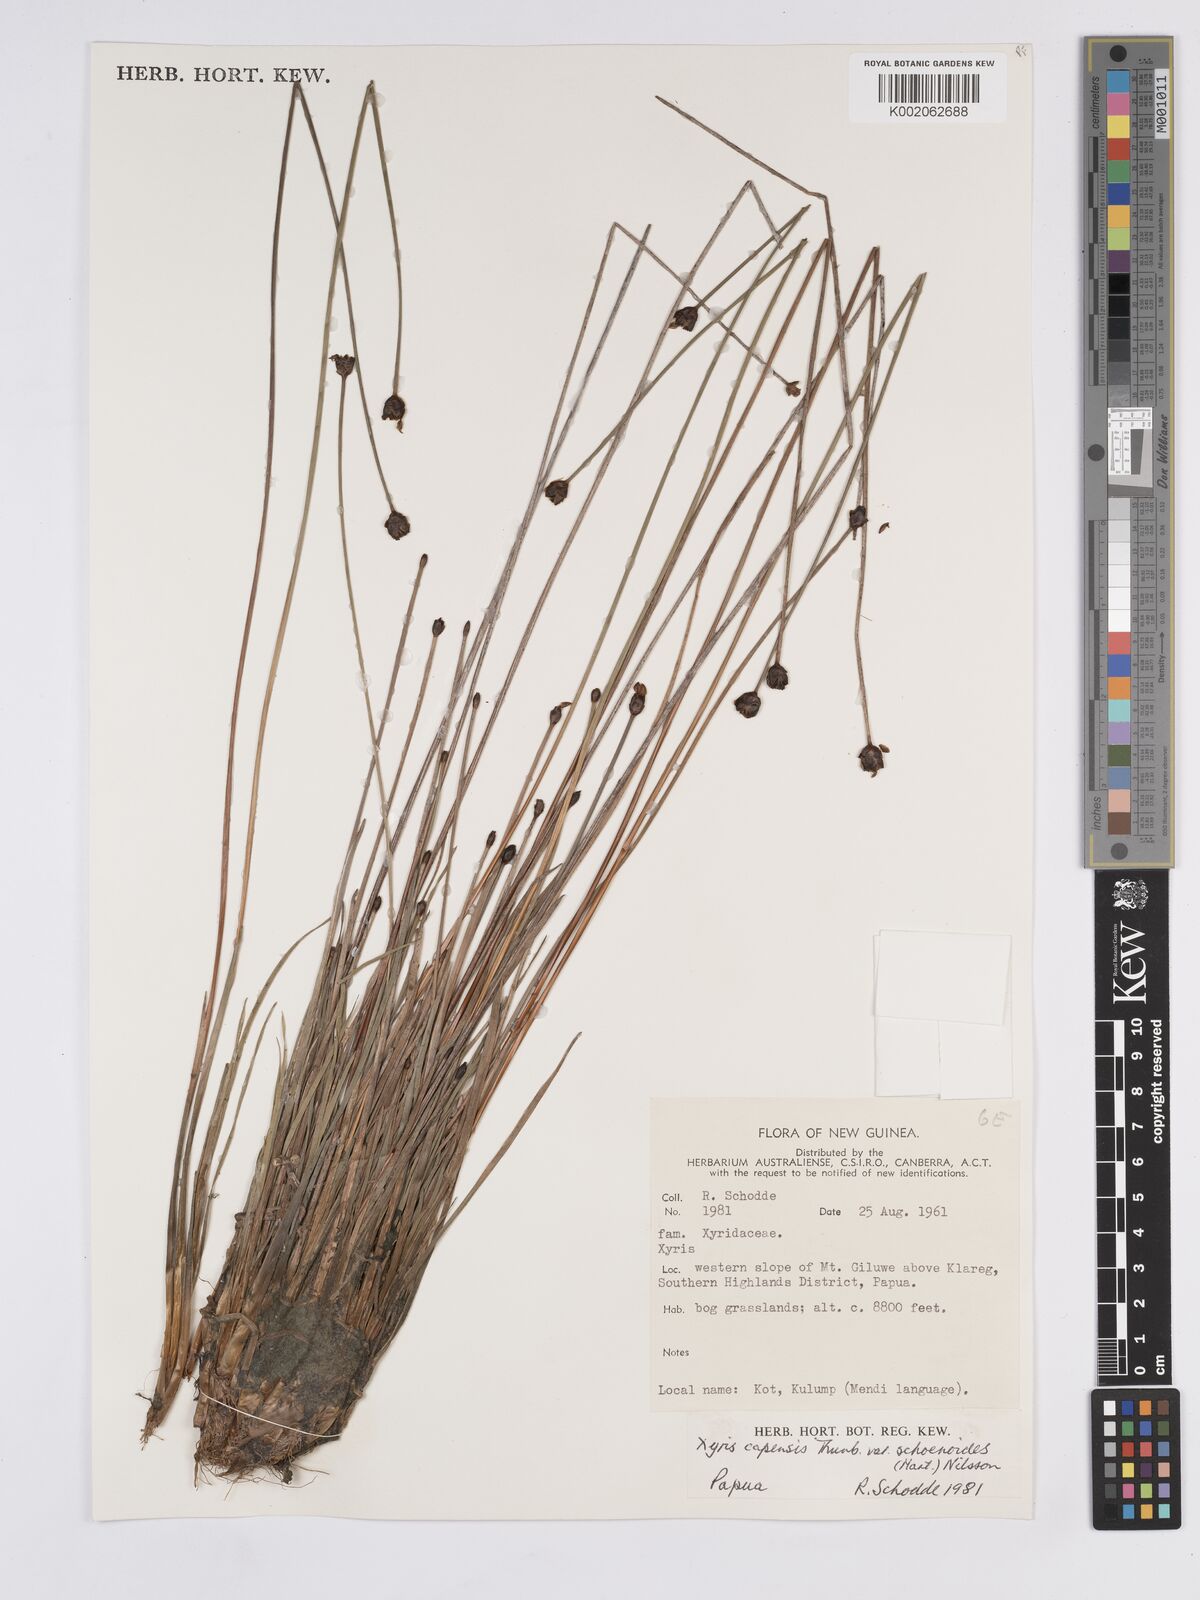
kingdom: Plantae
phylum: Tracheophyta
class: Liliopsida
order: Poales
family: Xyridaceae
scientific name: Xyridaceae
